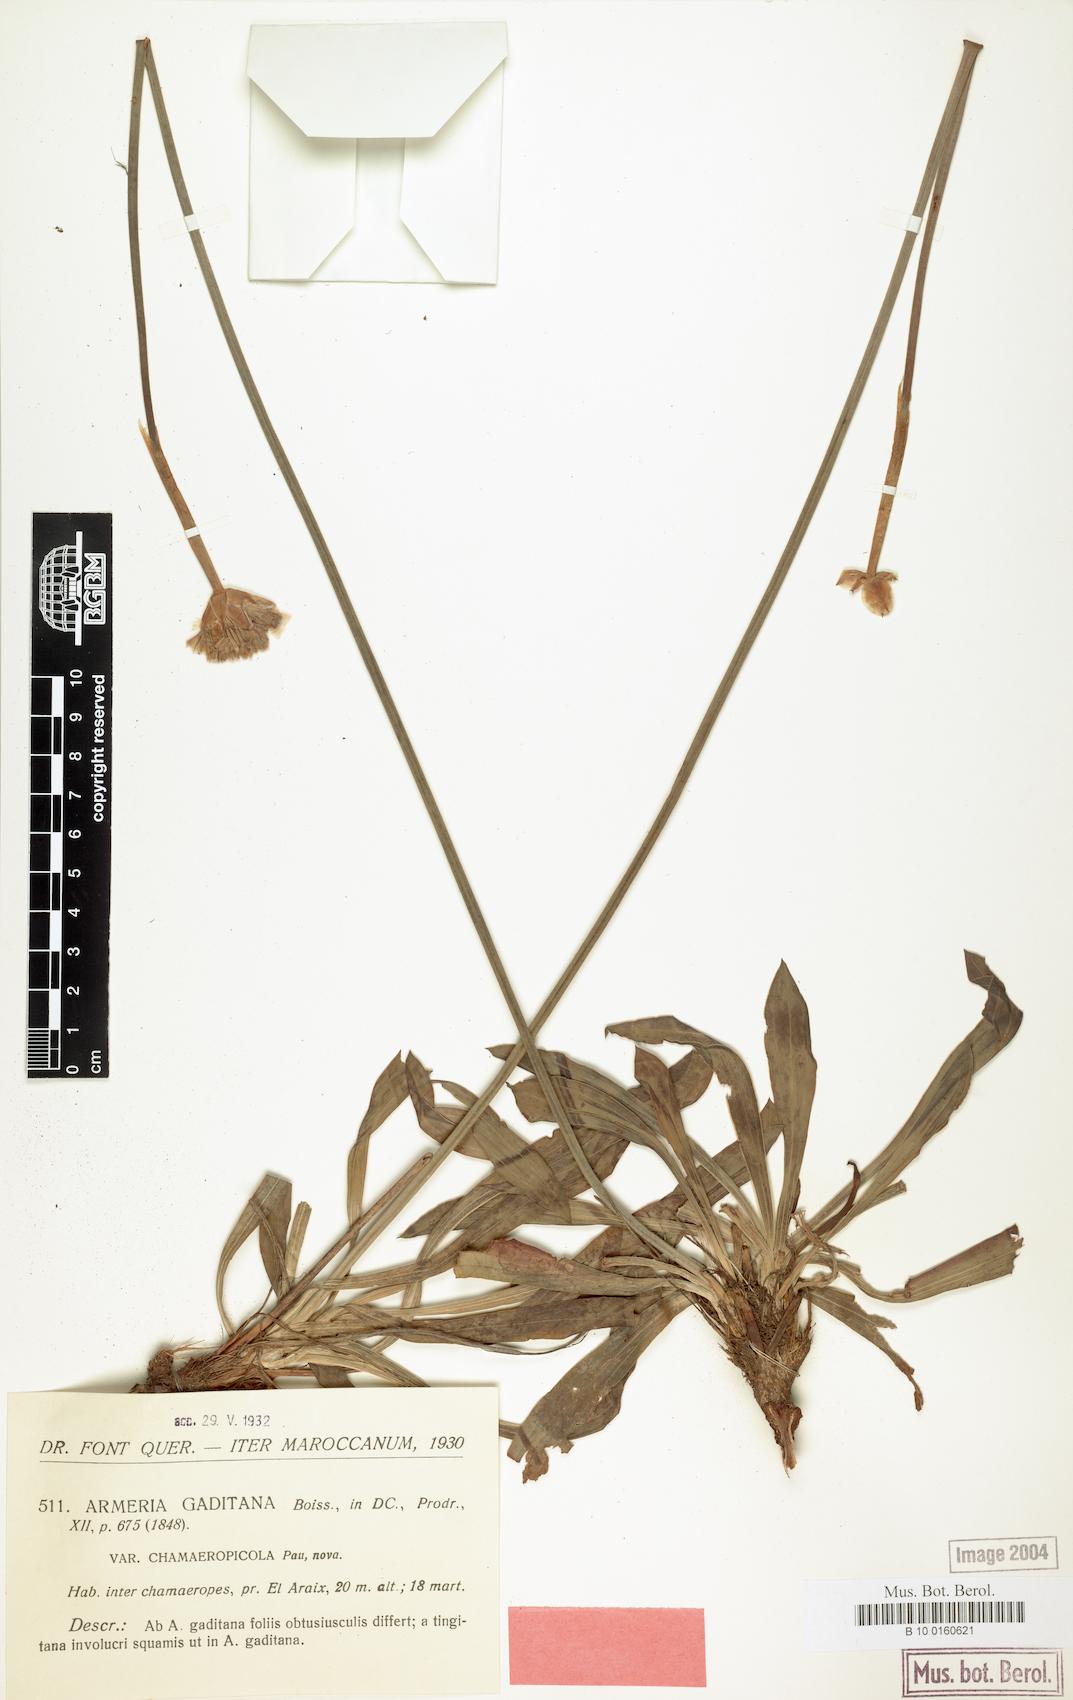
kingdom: Plantae
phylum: Tracheophyta
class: Magnoliopsida
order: Caryophyllales
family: Plumbaginaceae
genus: Armeria
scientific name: Armeria tingitana
